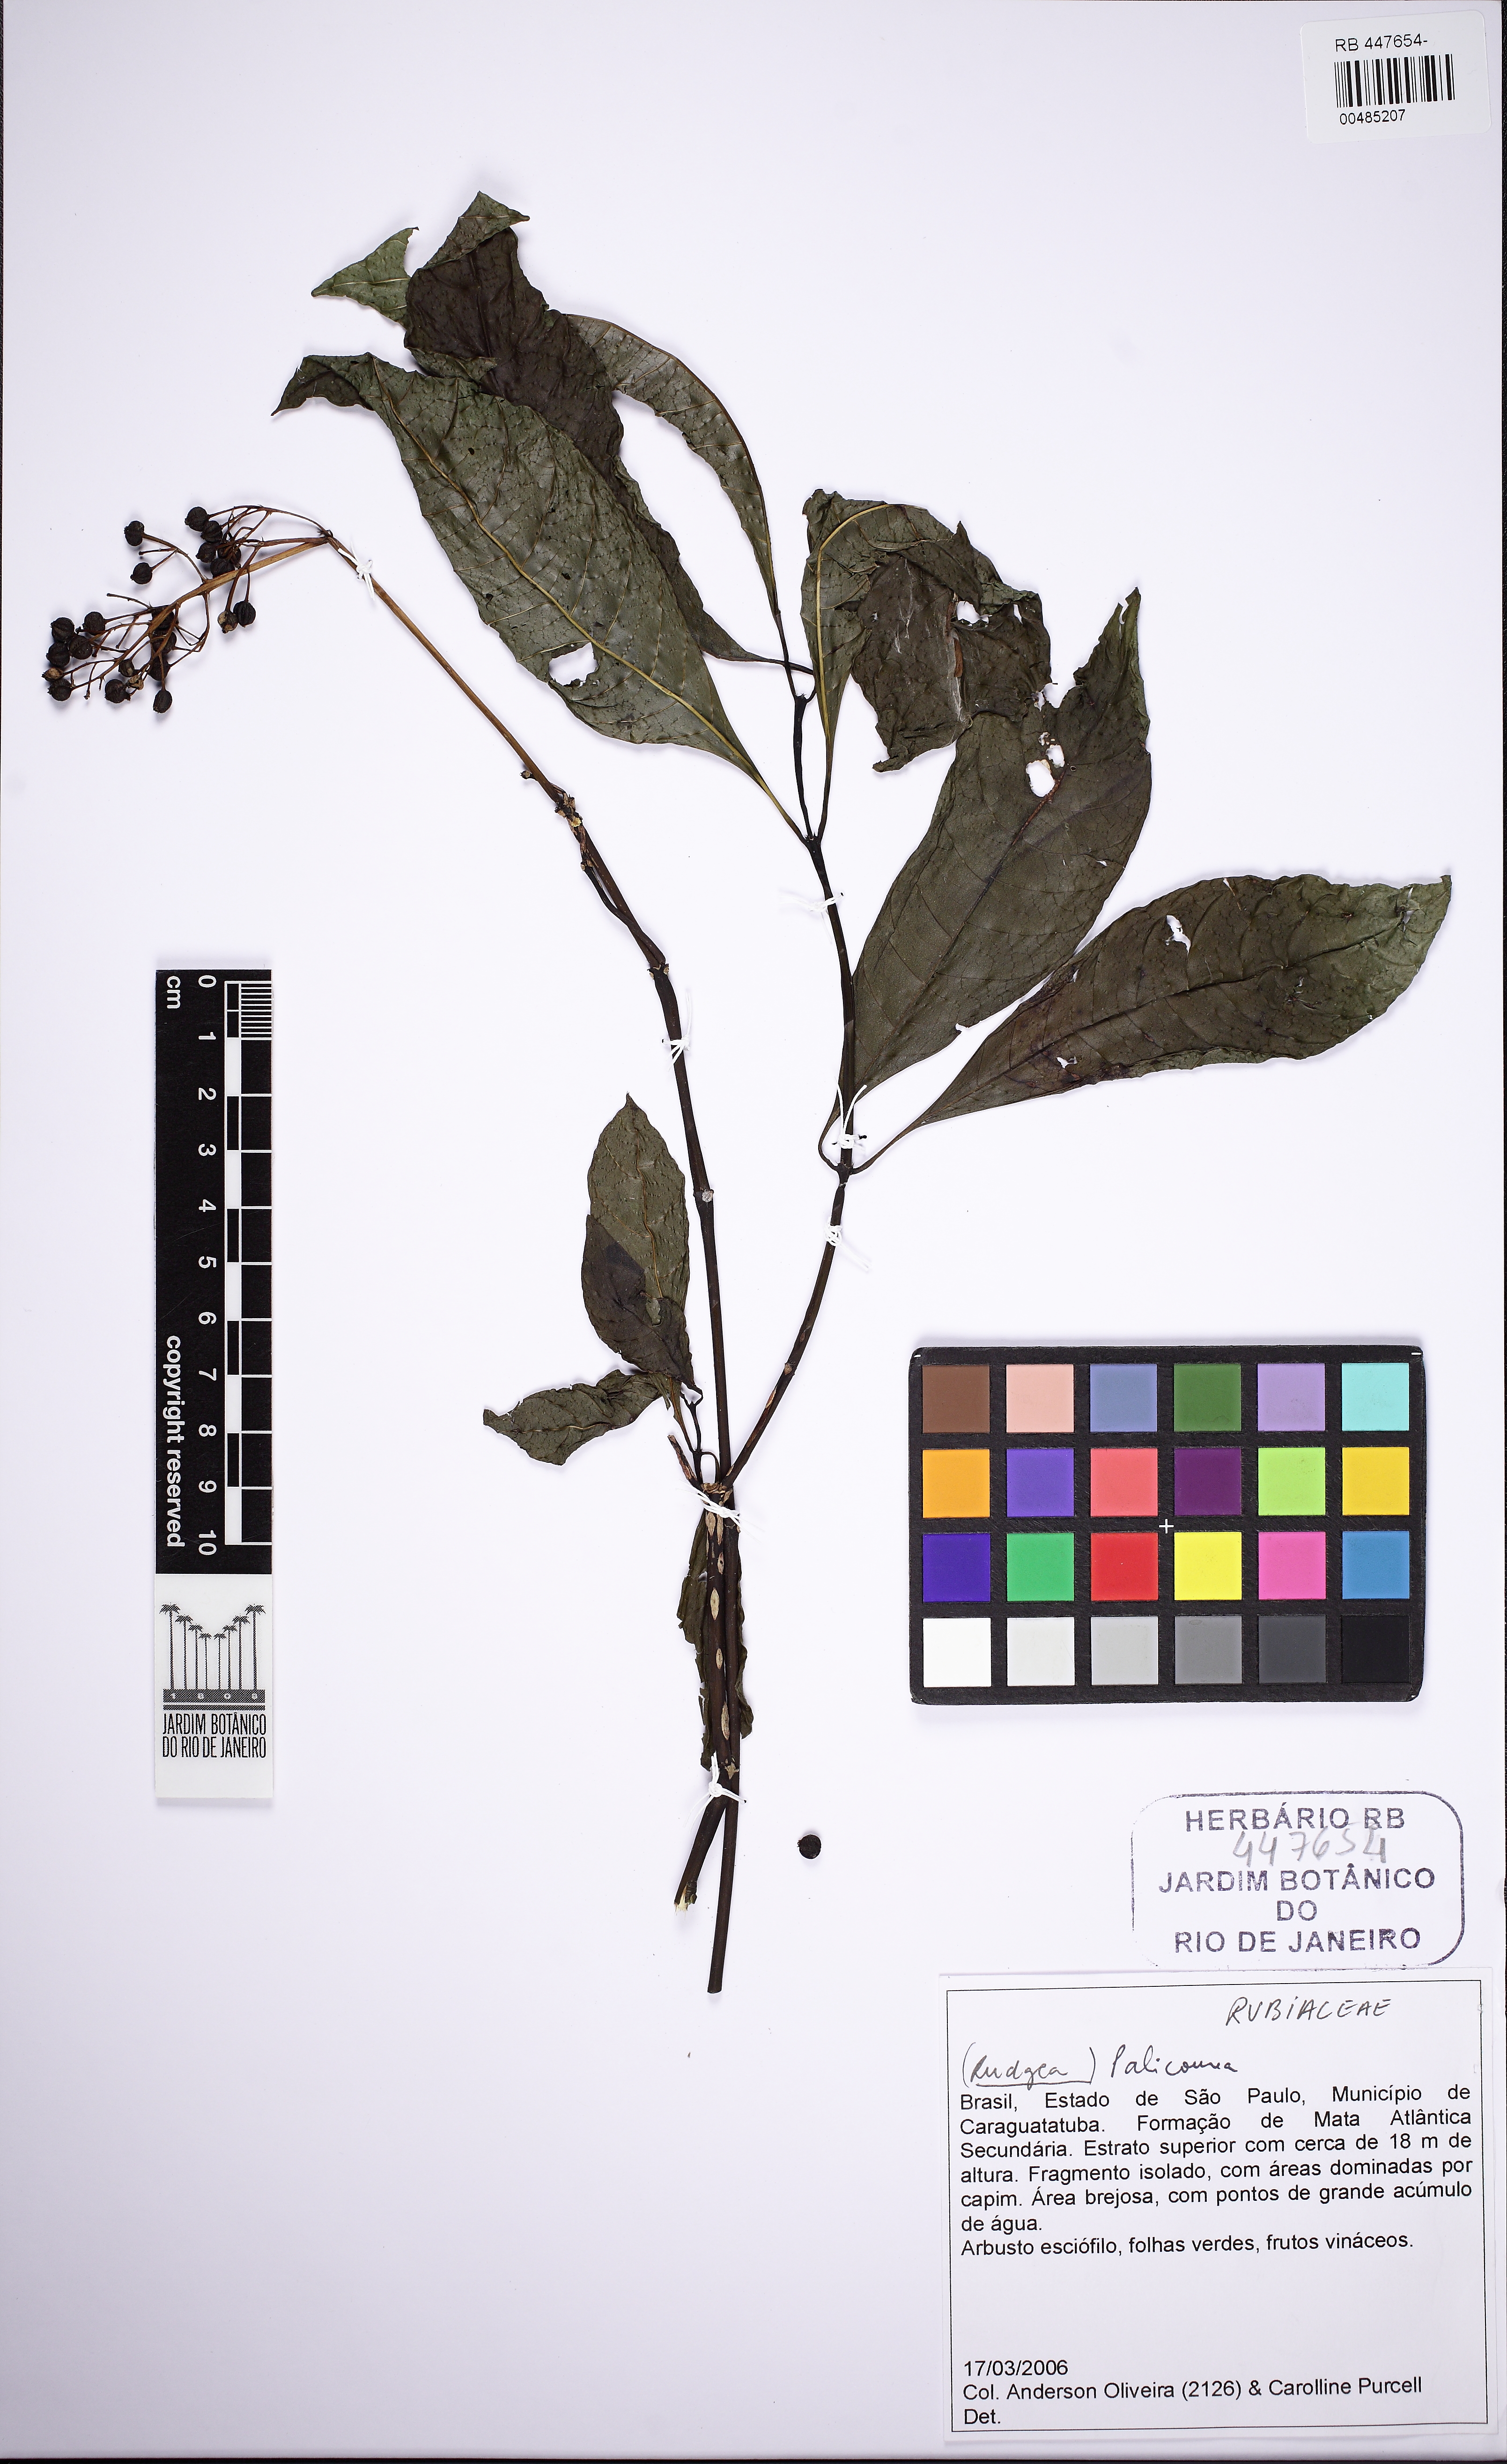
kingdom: Plantae
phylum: Tracheophyta
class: Magnoliopsida
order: Gentianales
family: Rubiaceae
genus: Palicourea
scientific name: Palicourea croceoides
